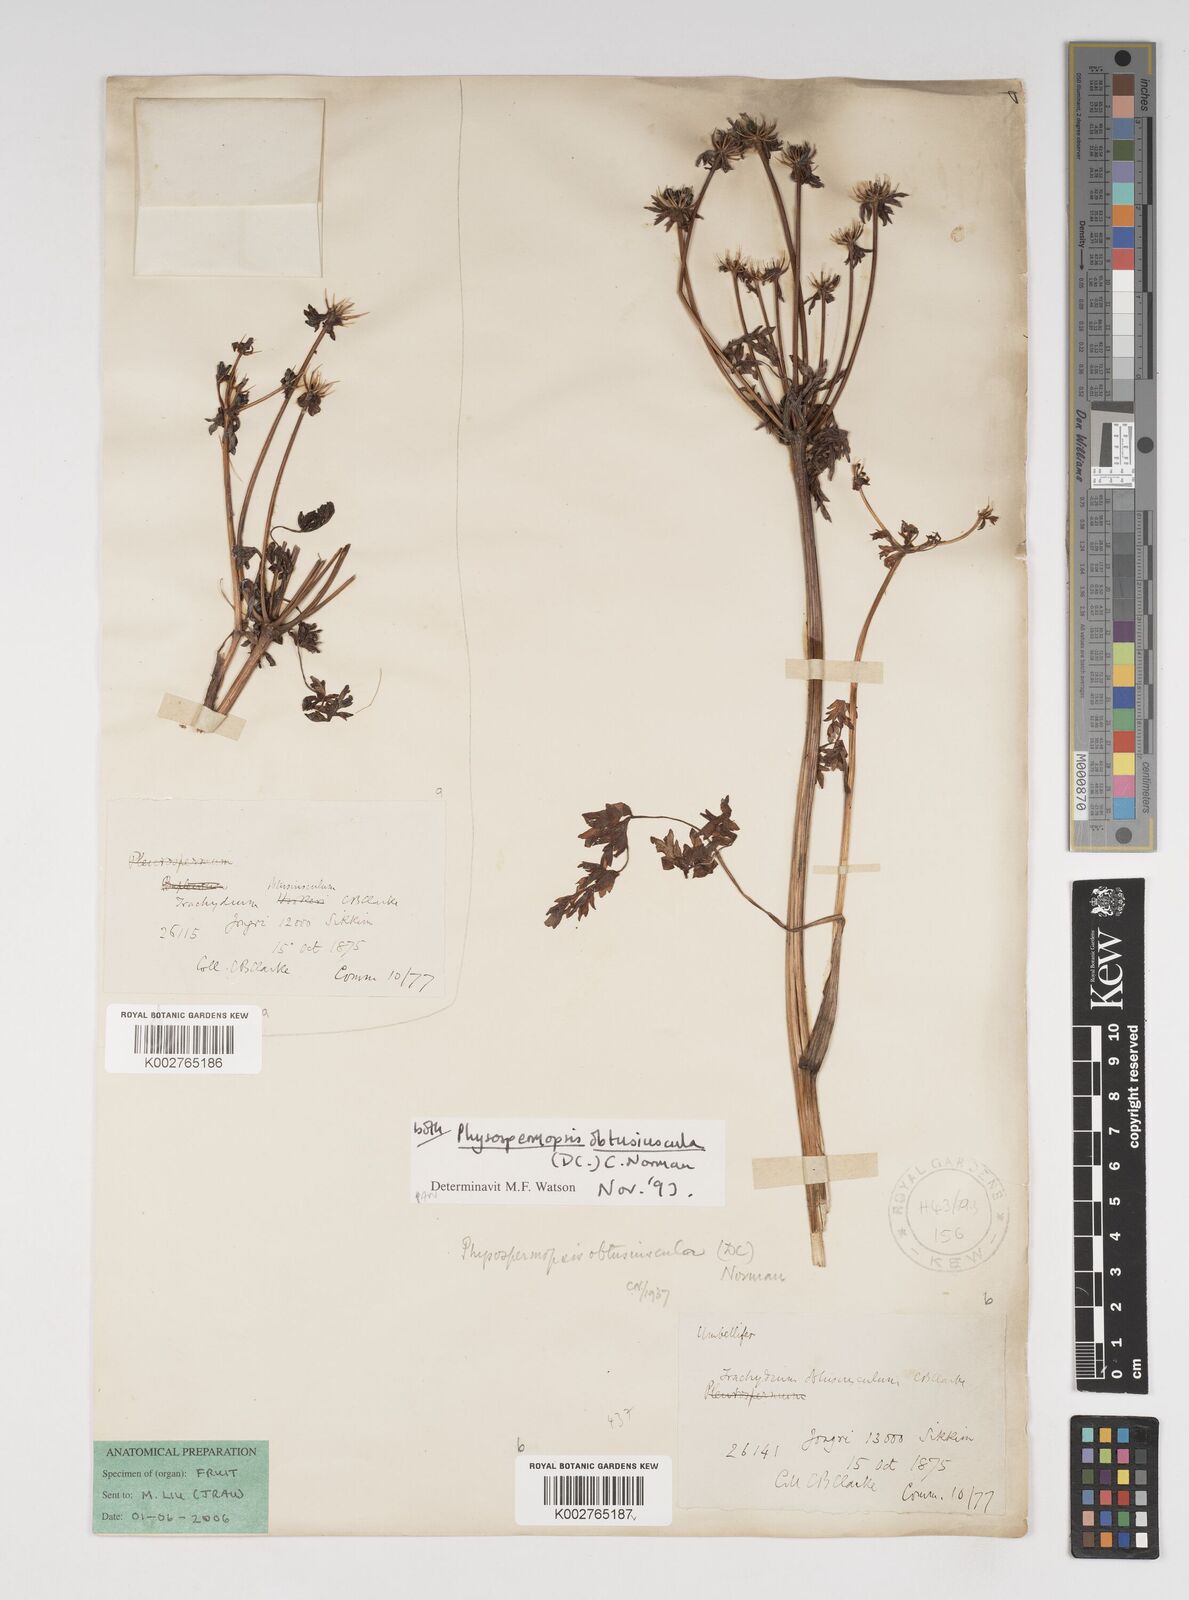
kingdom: Plantae
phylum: Tracheophyta
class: Magnoliopsida
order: Apiales
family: Apiaceae
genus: Pleurospermopsis
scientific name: Pleurospermopsis
